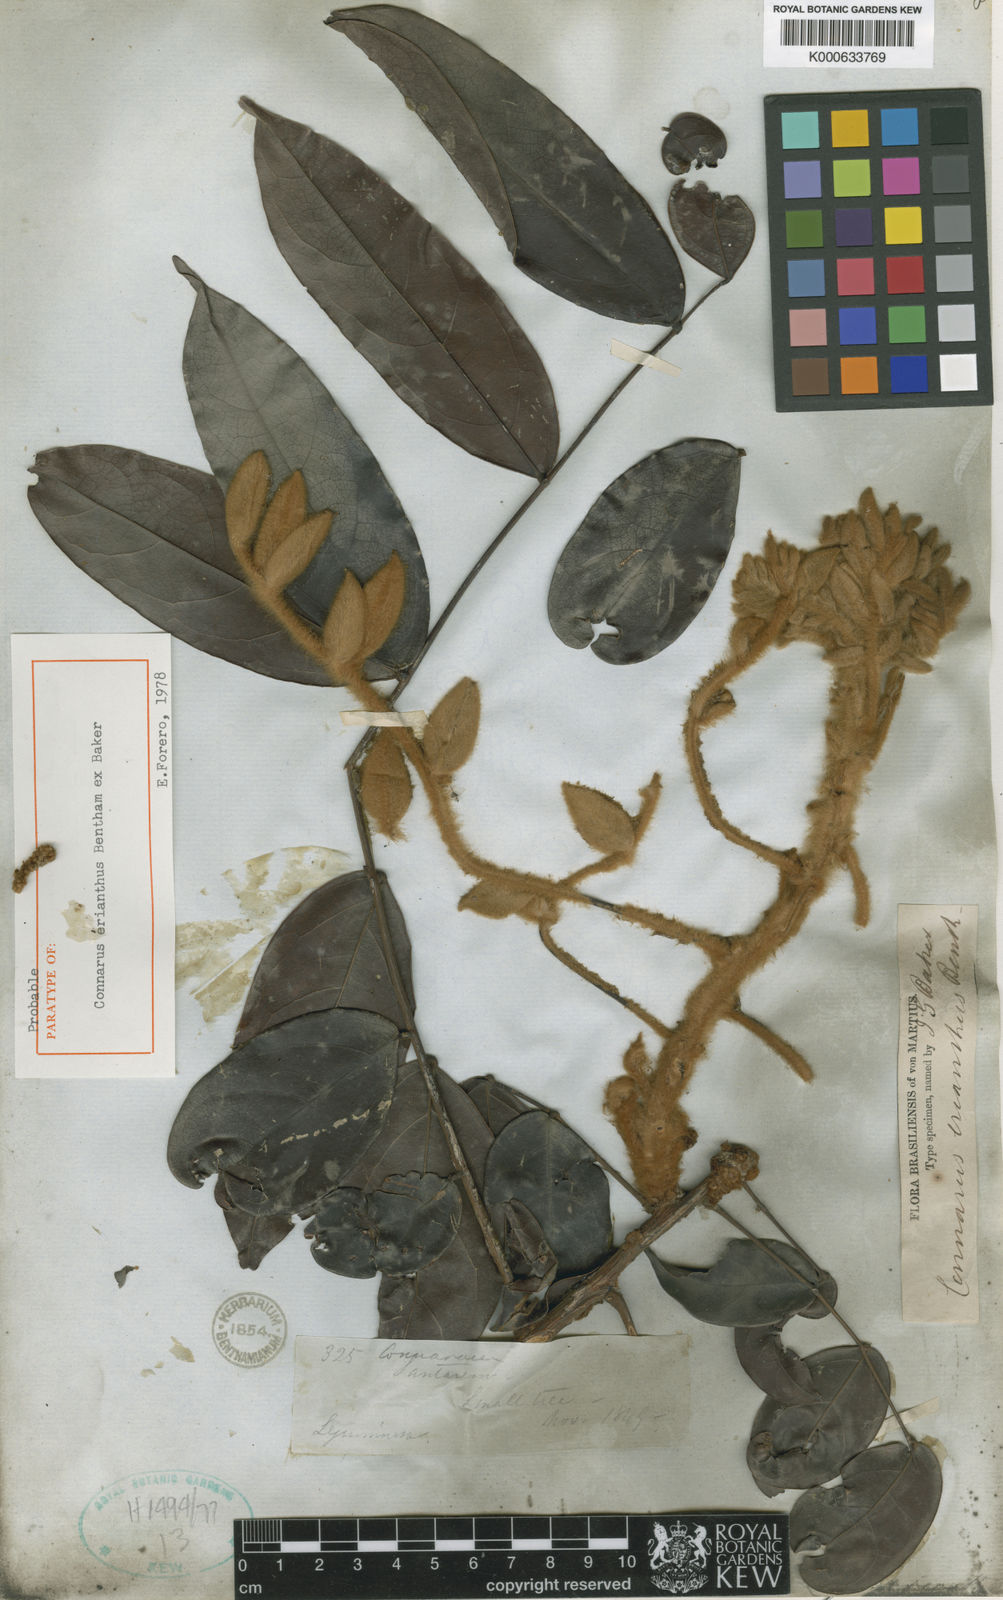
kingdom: Plantae
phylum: Tracheophyta
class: Magnoliopsida
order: Oxalidales
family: Connaraceae
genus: Connarus
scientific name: Connarus erianthus
